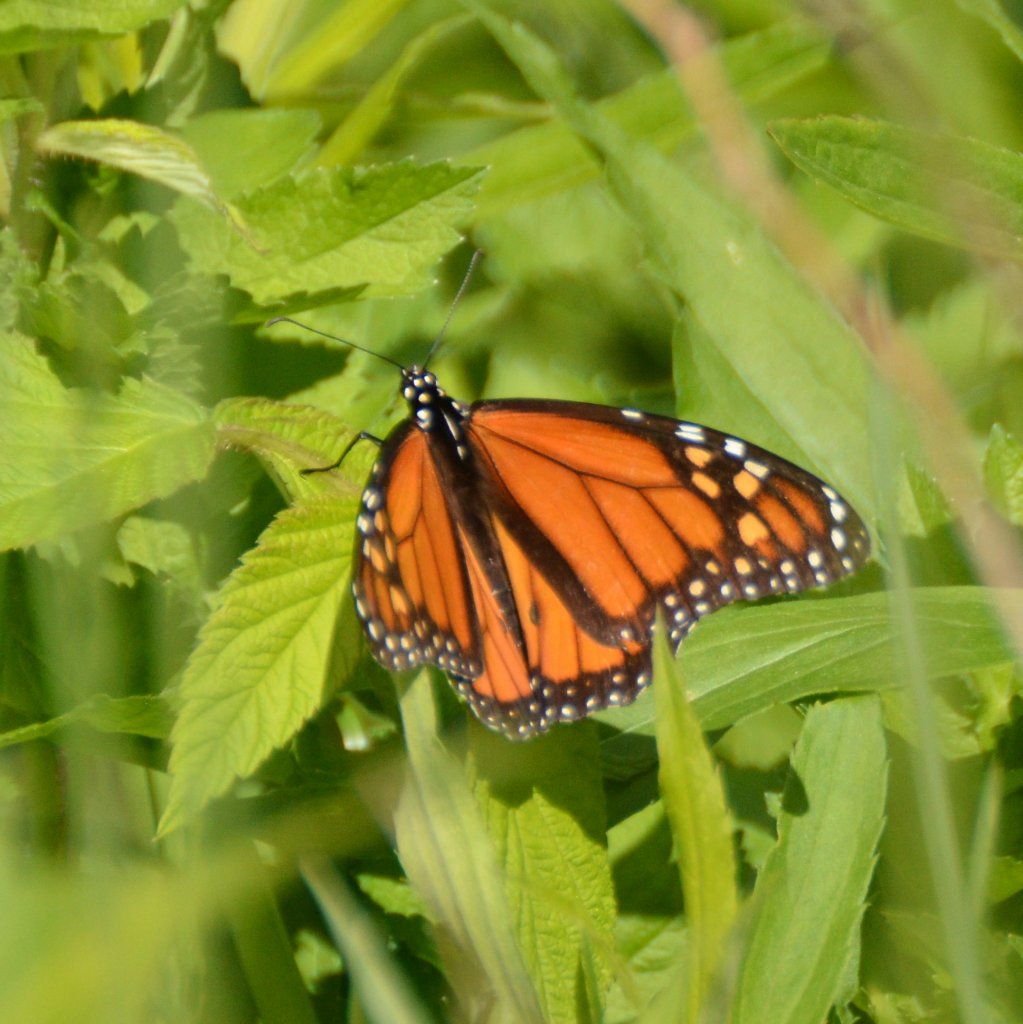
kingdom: Animalia
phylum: Arthropoda
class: Insecta
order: Lepidoptera
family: Nymphalidae
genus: Danaus
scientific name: Danaus plexippus
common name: Monarch
